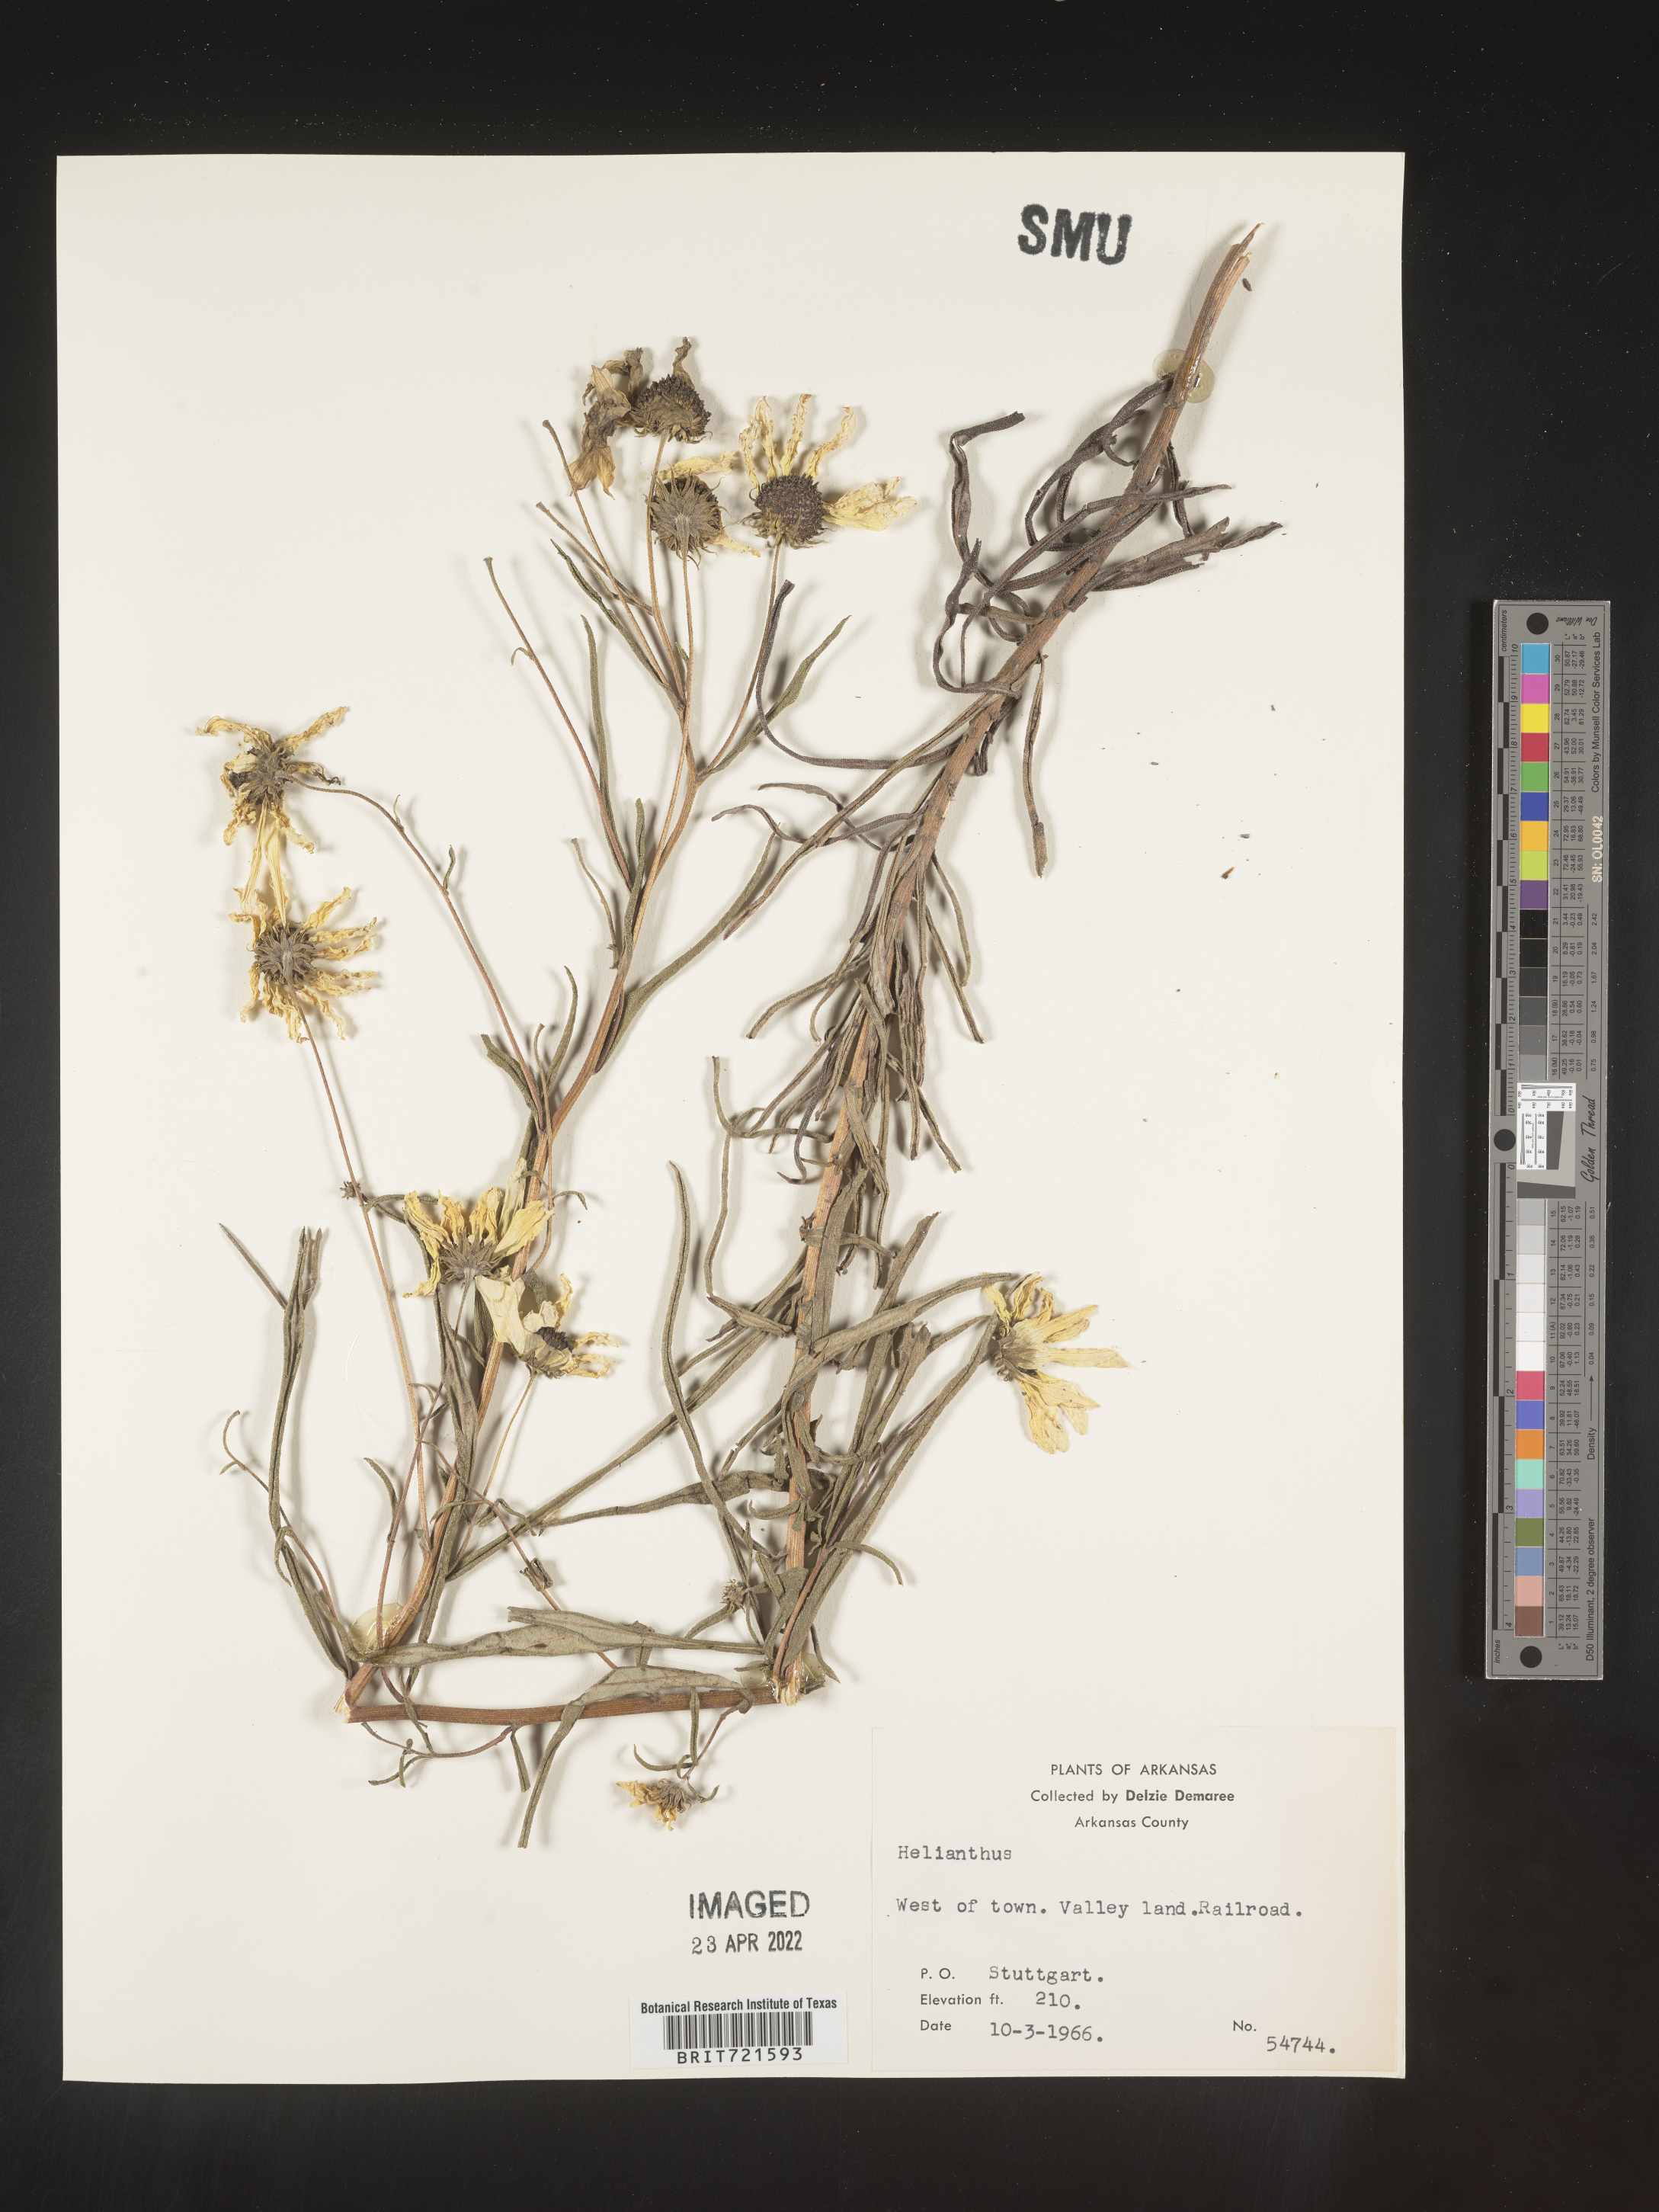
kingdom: Plantae
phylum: Tracheophyta
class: Magnoliopsida
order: Asterales
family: Asteraceae
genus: Helianthus
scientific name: Helianthus angustifolius
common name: Swamp sunflower
